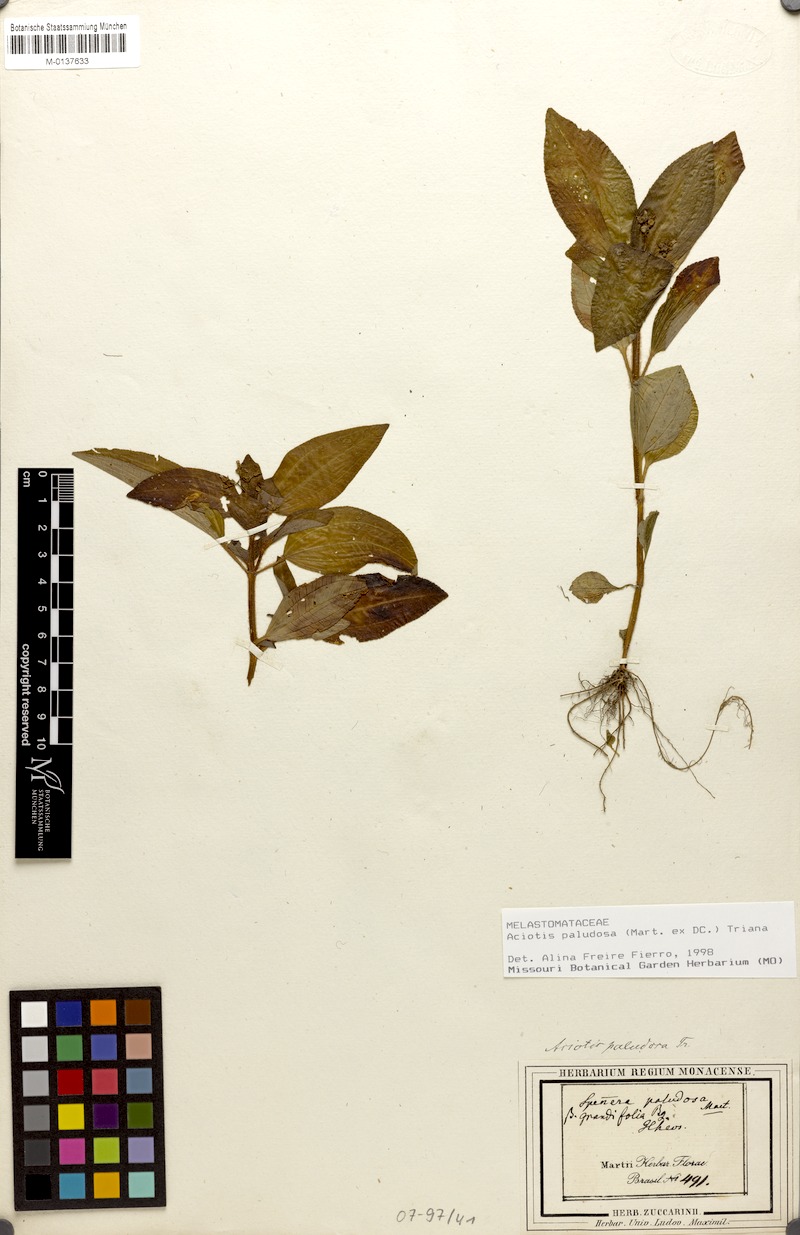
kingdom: Plantae
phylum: Tracheophyta
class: Magnoliopsida
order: Myrtales
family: Melastomataceae
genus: Aciotis
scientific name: Aciotis paludosa
